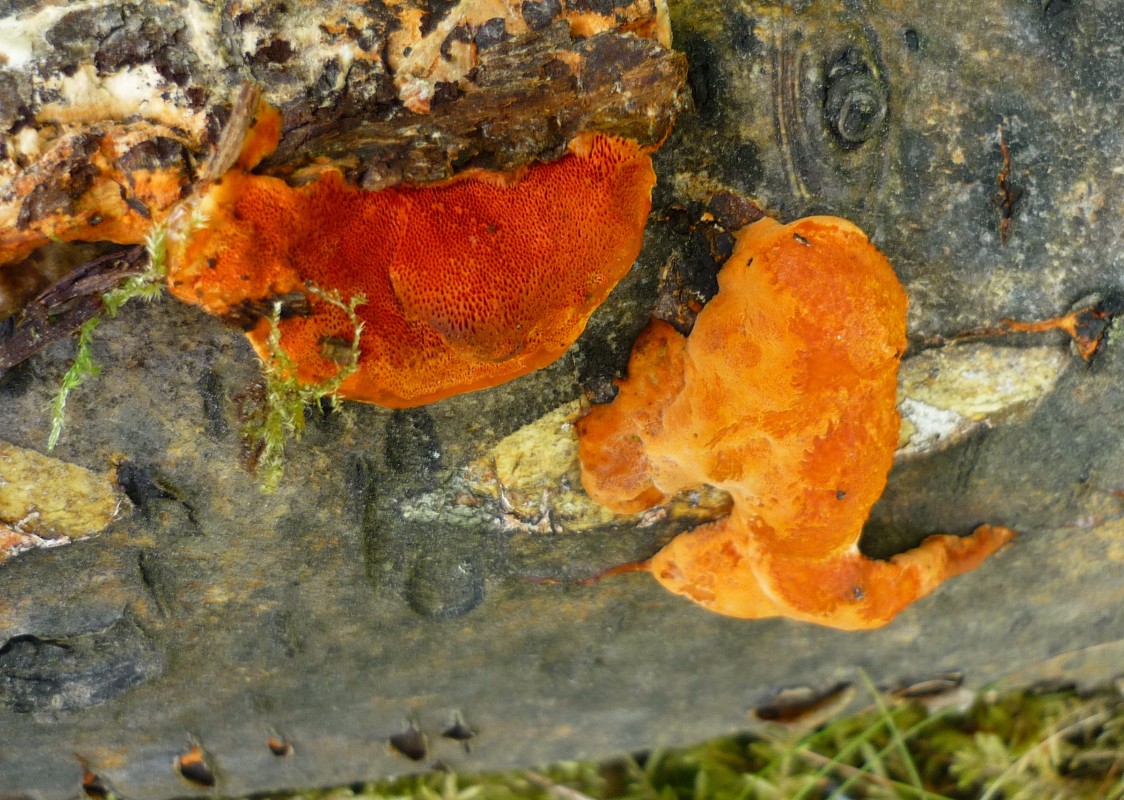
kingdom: Fungi
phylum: Basidiomycota
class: Agaricomycetes
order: Polyporales
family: Polyporaceae
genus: Trametes
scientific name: Trametes cinnabarina
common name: cinnoberporesvamp
